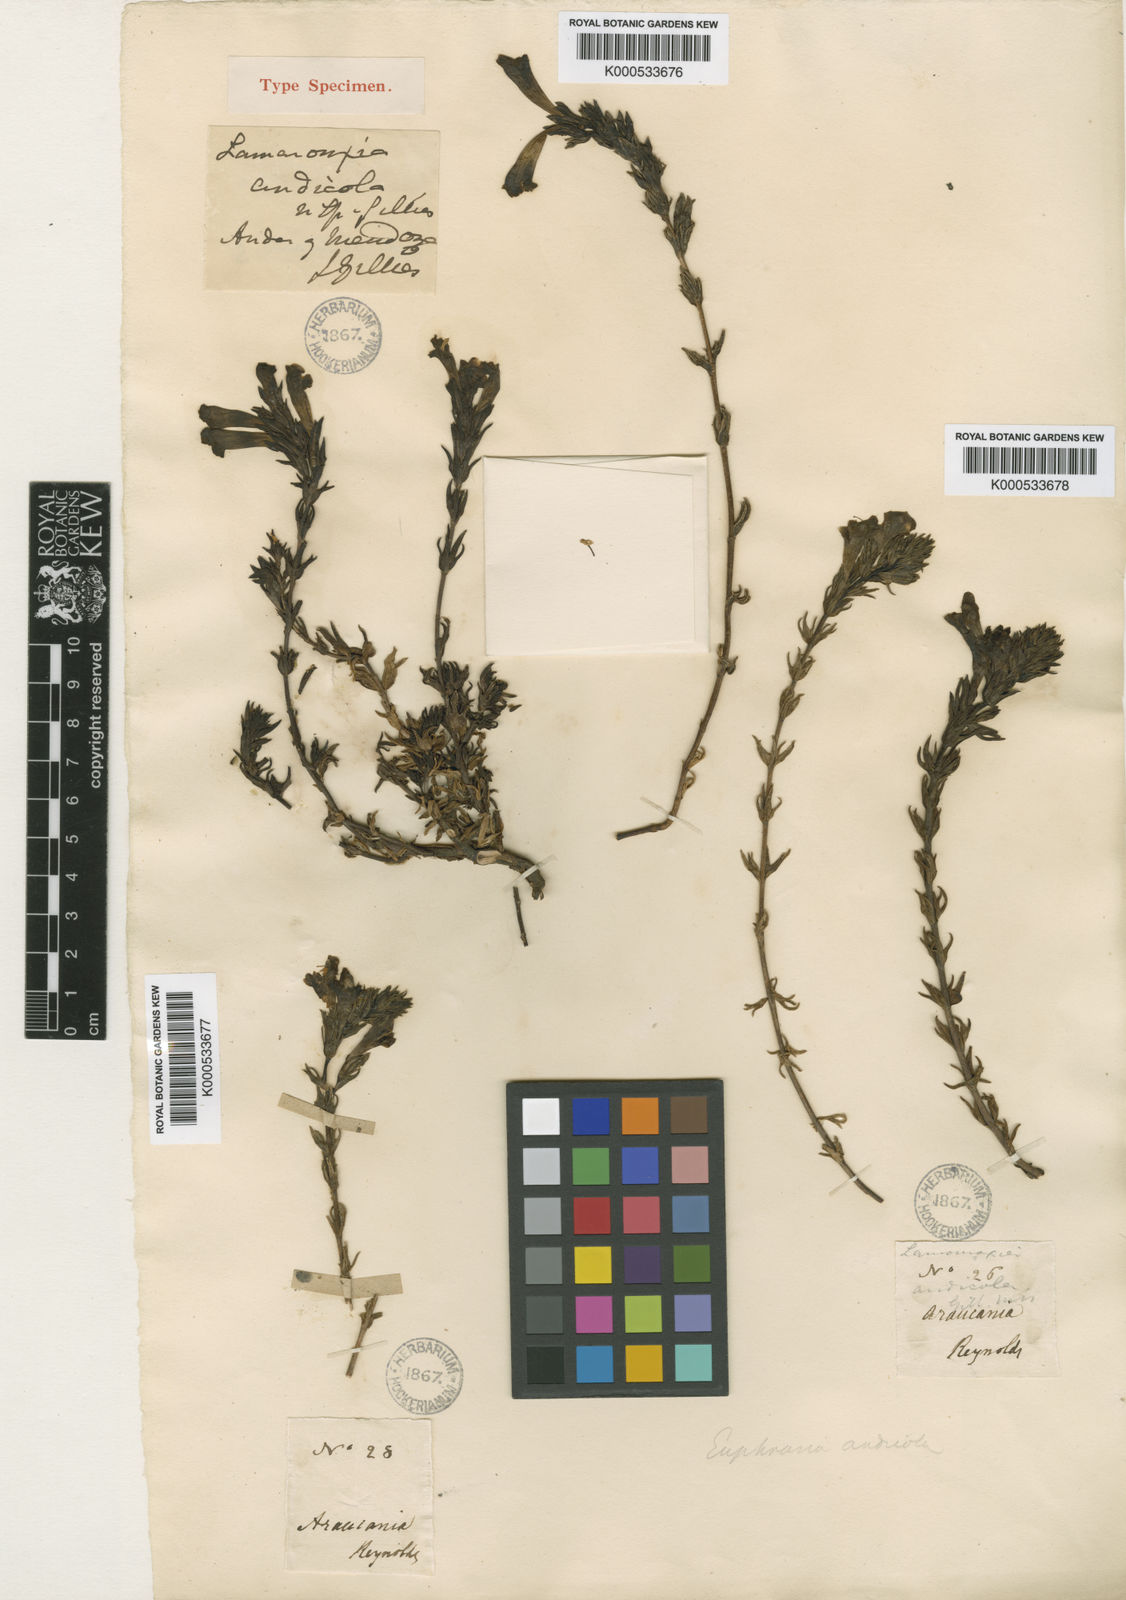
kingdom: Plantae
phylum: Tracheophyta
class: Magnoliopsida
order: Lamiales
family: Orobanchaceae
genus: Euphrasia
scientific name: Euphrasia andicola
